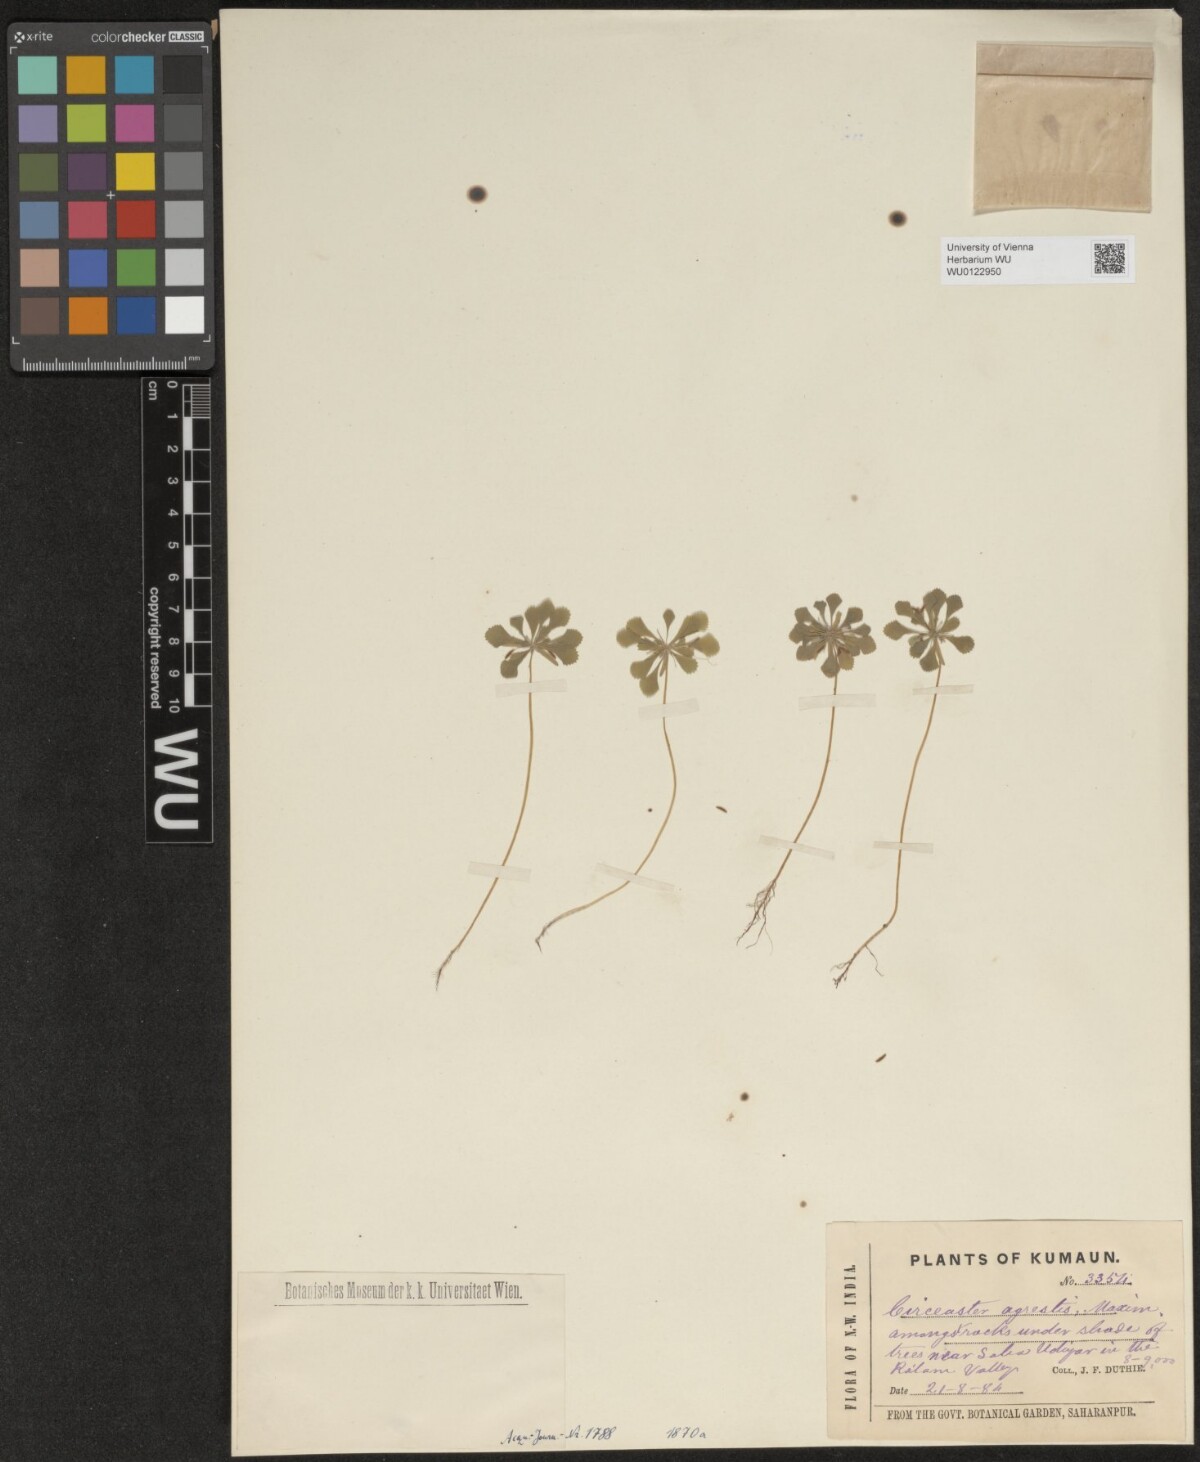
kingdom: Plantae
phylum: Tracheophyta
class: Magnoliopsida
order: Ranunculales
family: Circaeasteraceae
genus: Circaeaster
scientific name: Circaeaster agrestis
